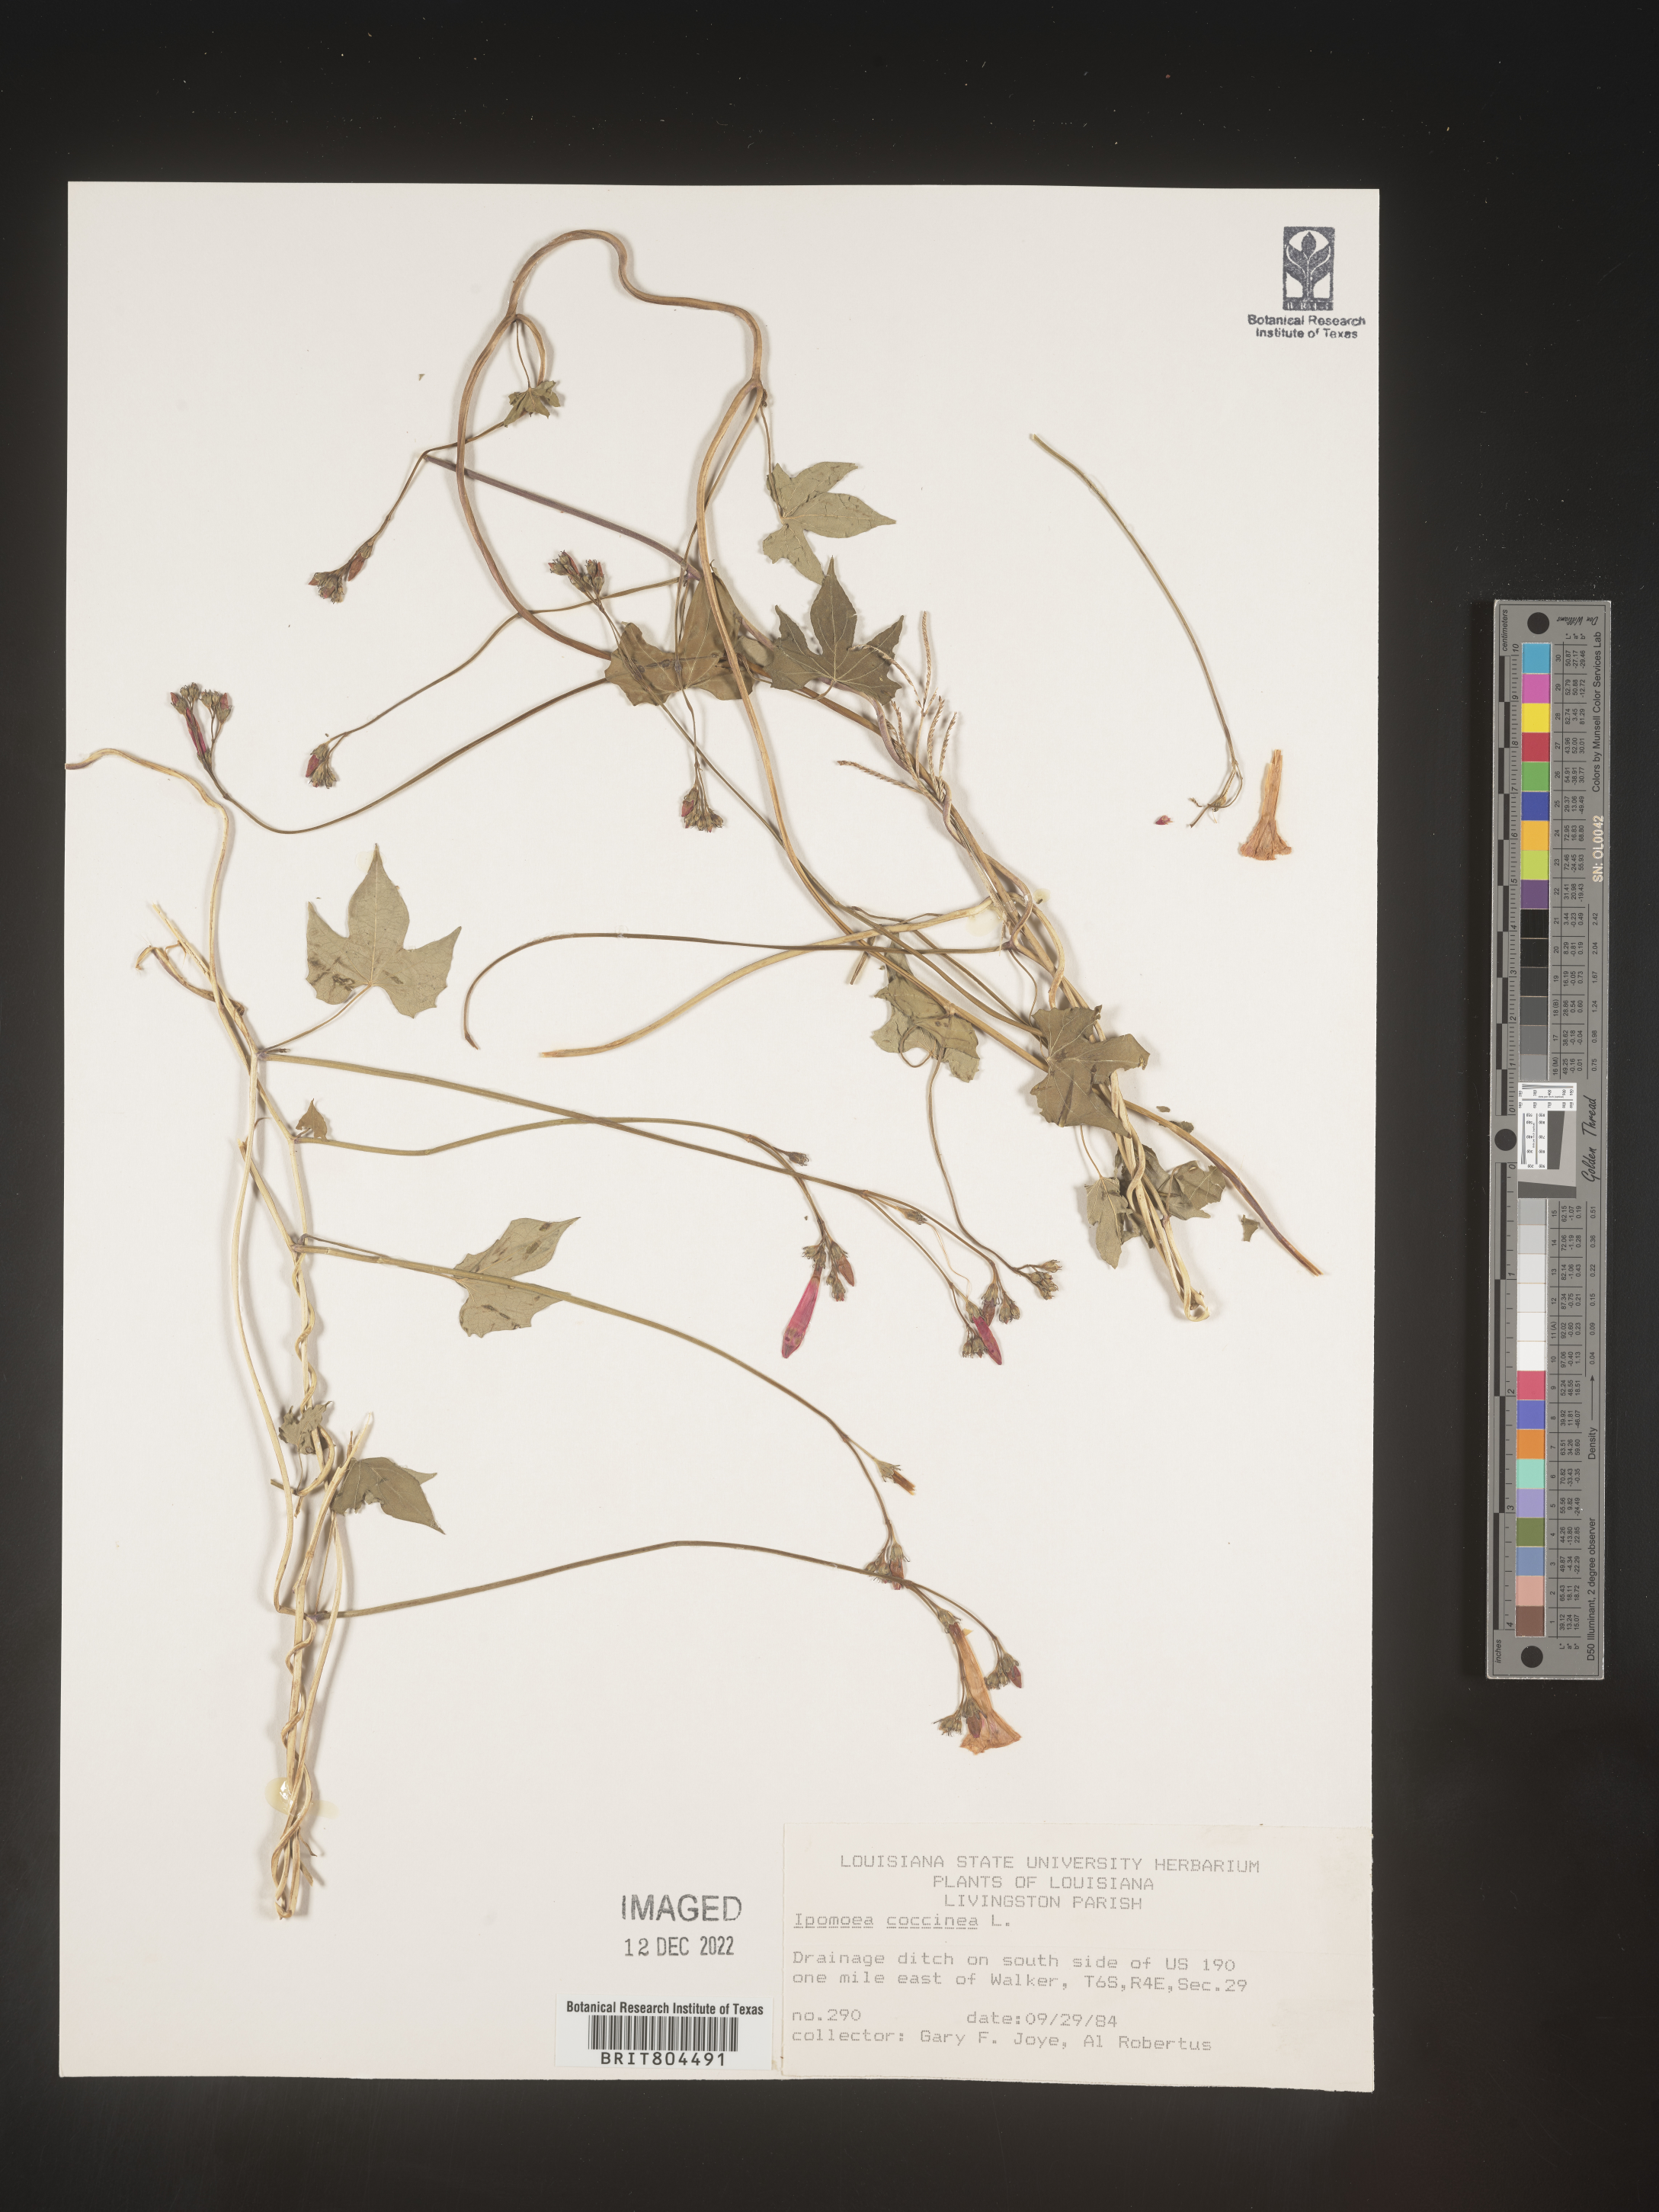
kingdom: Plantae
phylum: Tracheophyta
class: Magnoliopsida
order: Solanales
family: Convolvulaceae
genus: Ipomoea
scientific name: Ipomoea coccinea
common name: Red morning-glory
